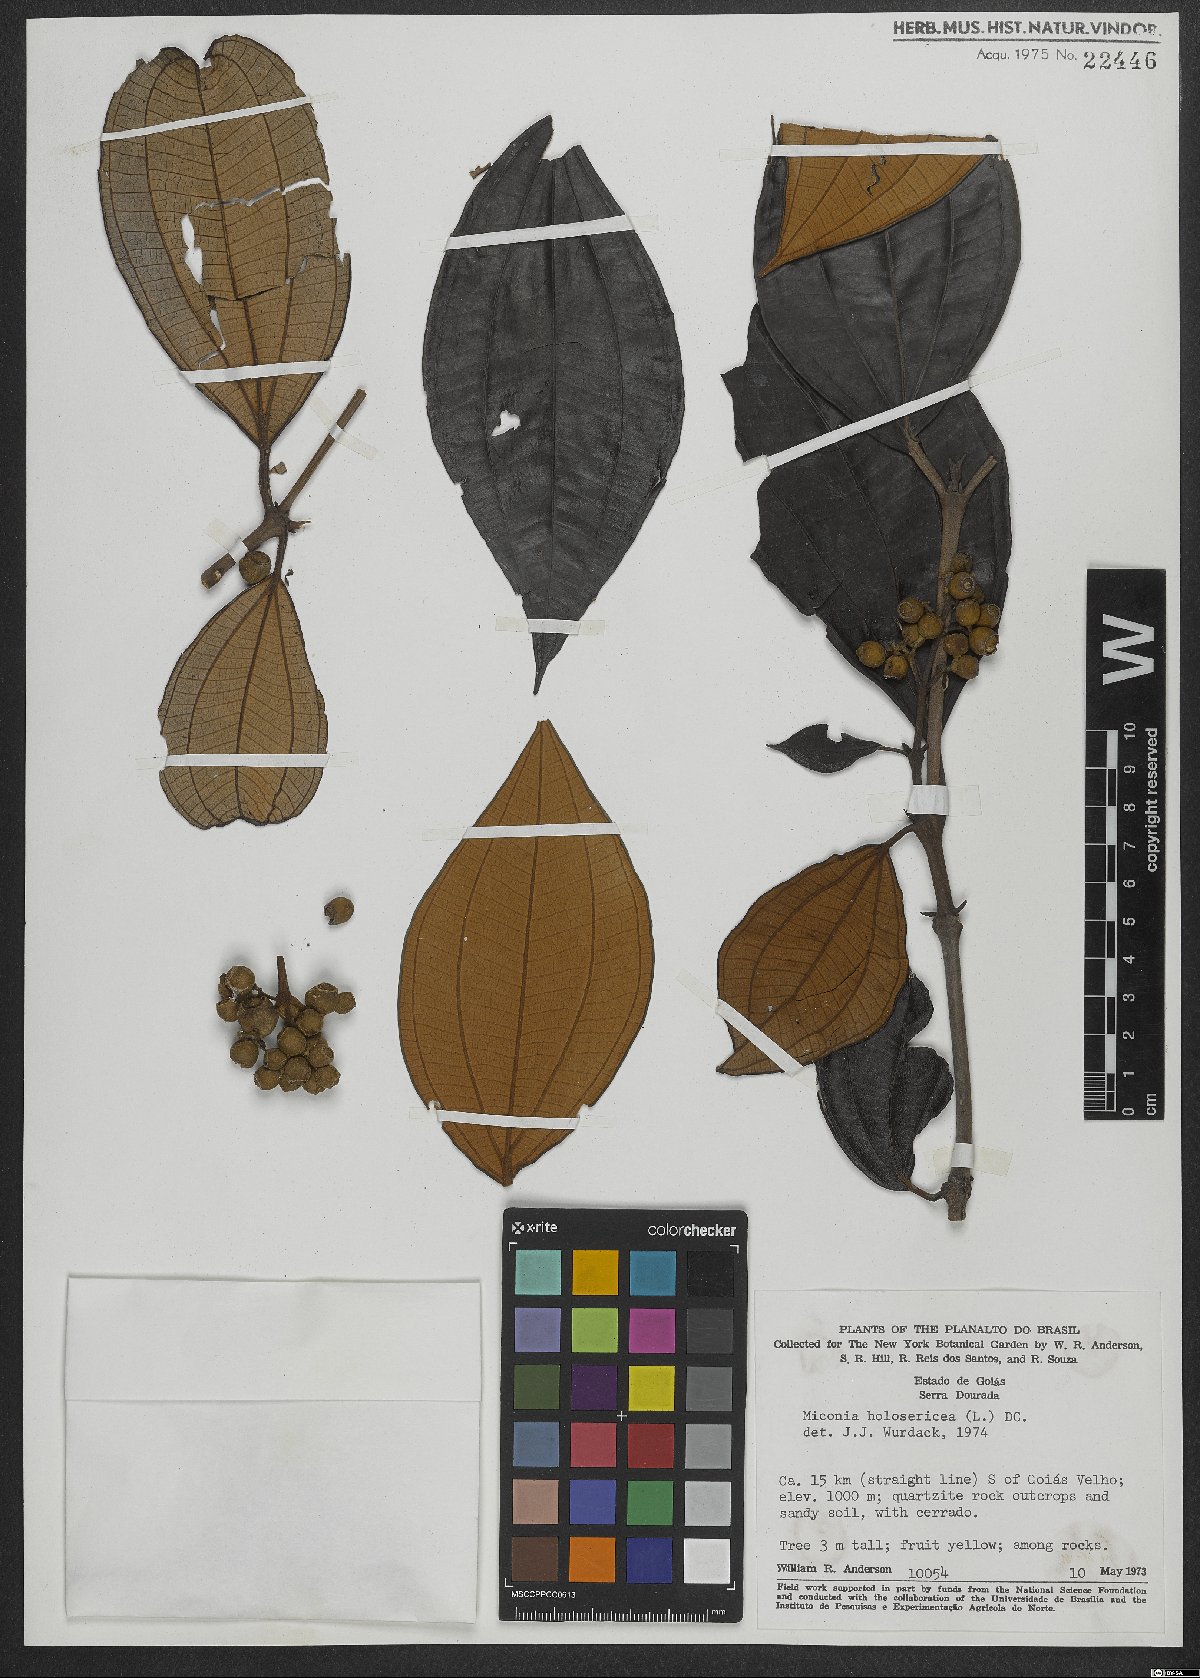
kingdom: Plantae
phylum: Tracheophyta
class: Magnoliopsida
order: Myrtales
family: Melastomataceae
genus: Miconia
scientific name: Miconia holosericea
